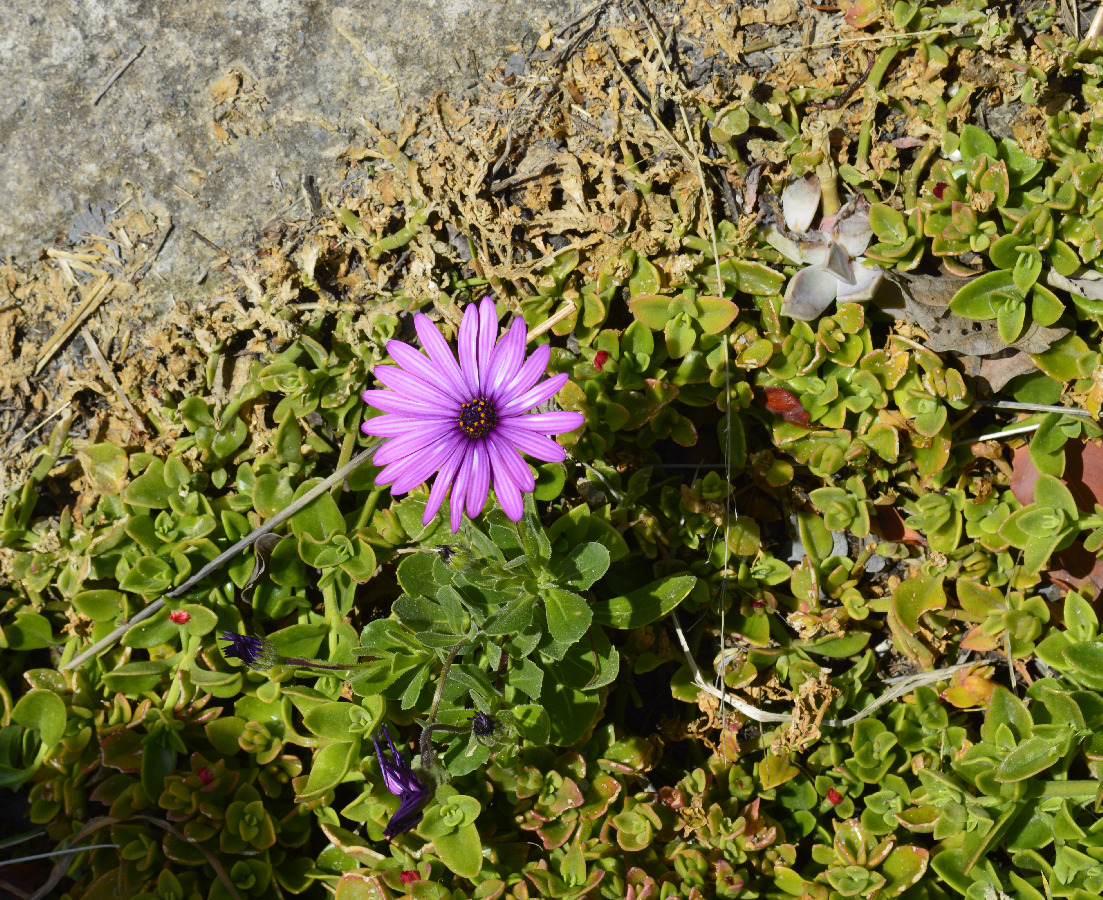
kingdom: Plantae
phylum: Tracheophyta
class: Magnoliopsida
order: Asterales
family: Asteraceae
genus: Dimorphotheca
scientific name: Dimorphotheca ecklonis
